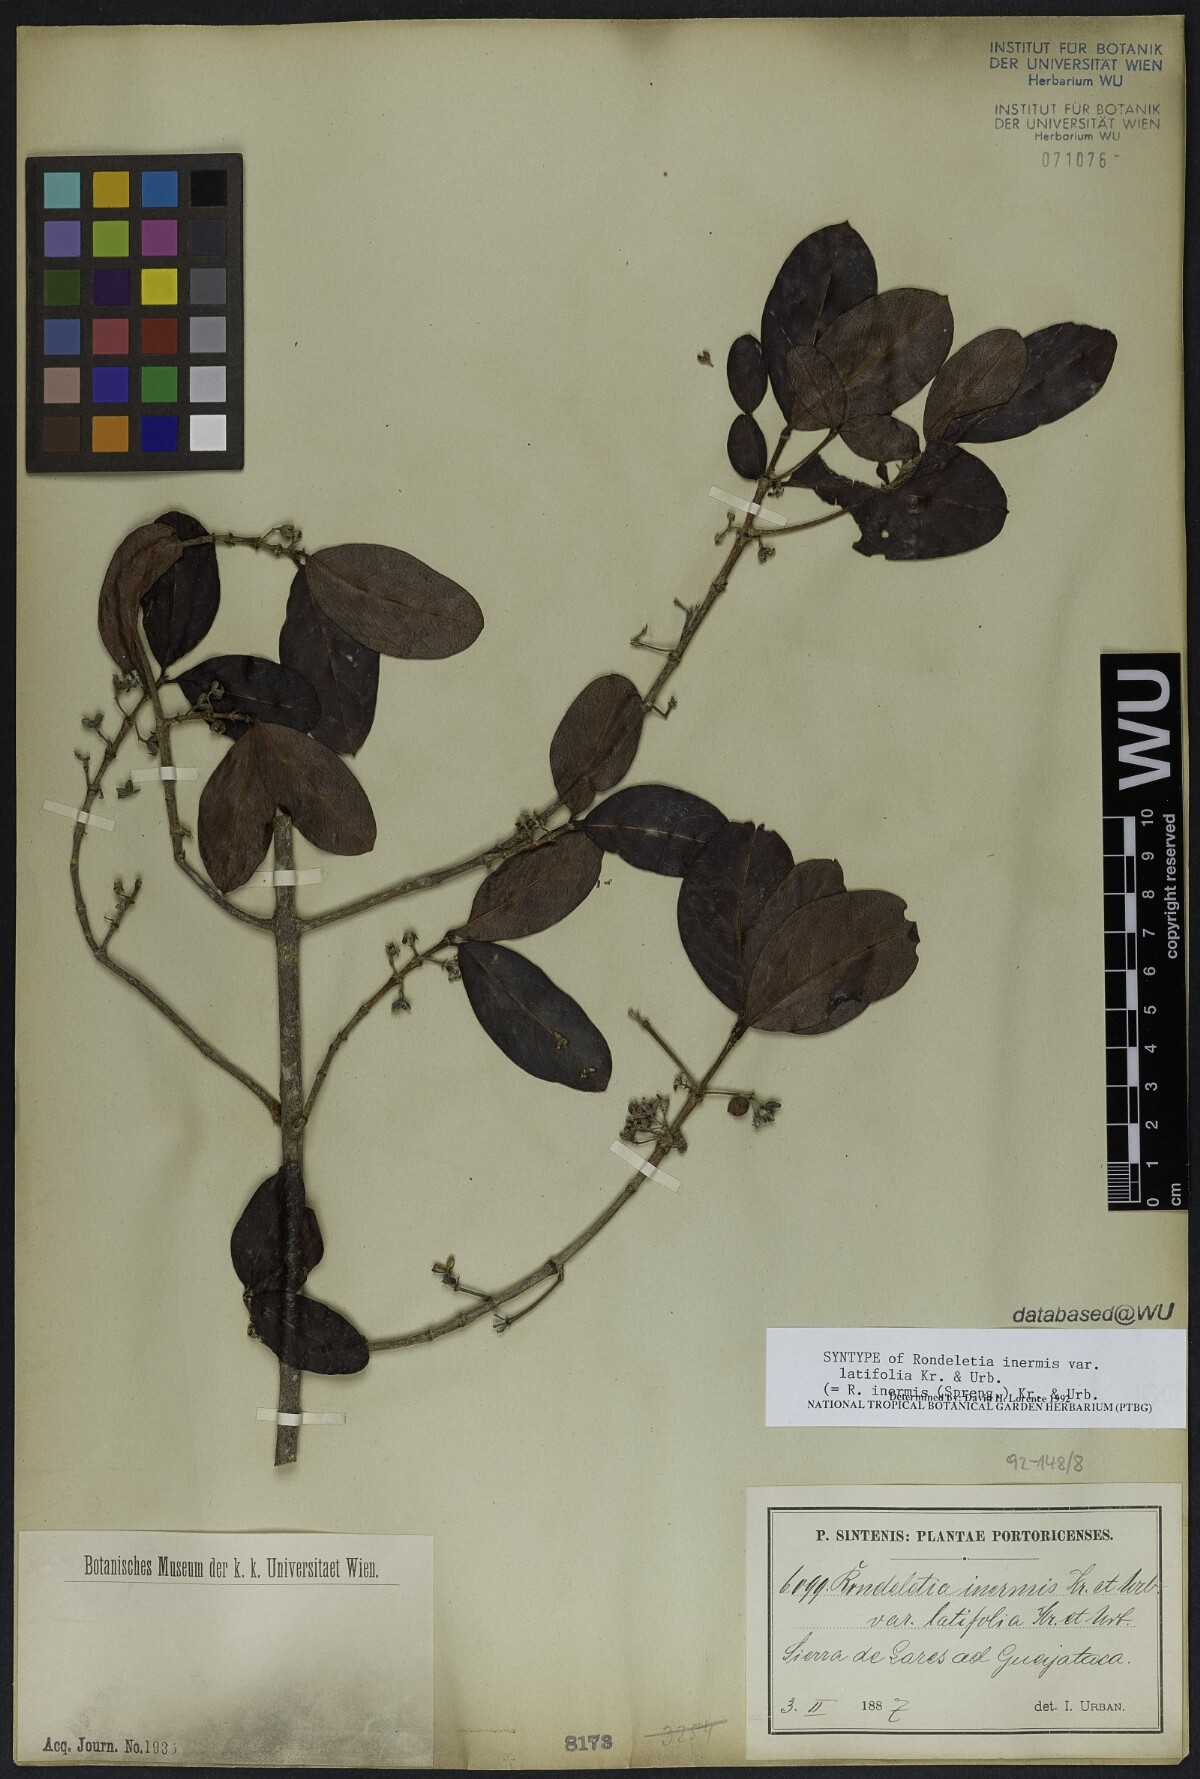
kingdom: Plantae
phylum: Tracheophyta
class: Magnoliopsida
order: Gentianales
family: Rubiaceae
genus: Rondeletia
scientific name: Rondeletia inermis
